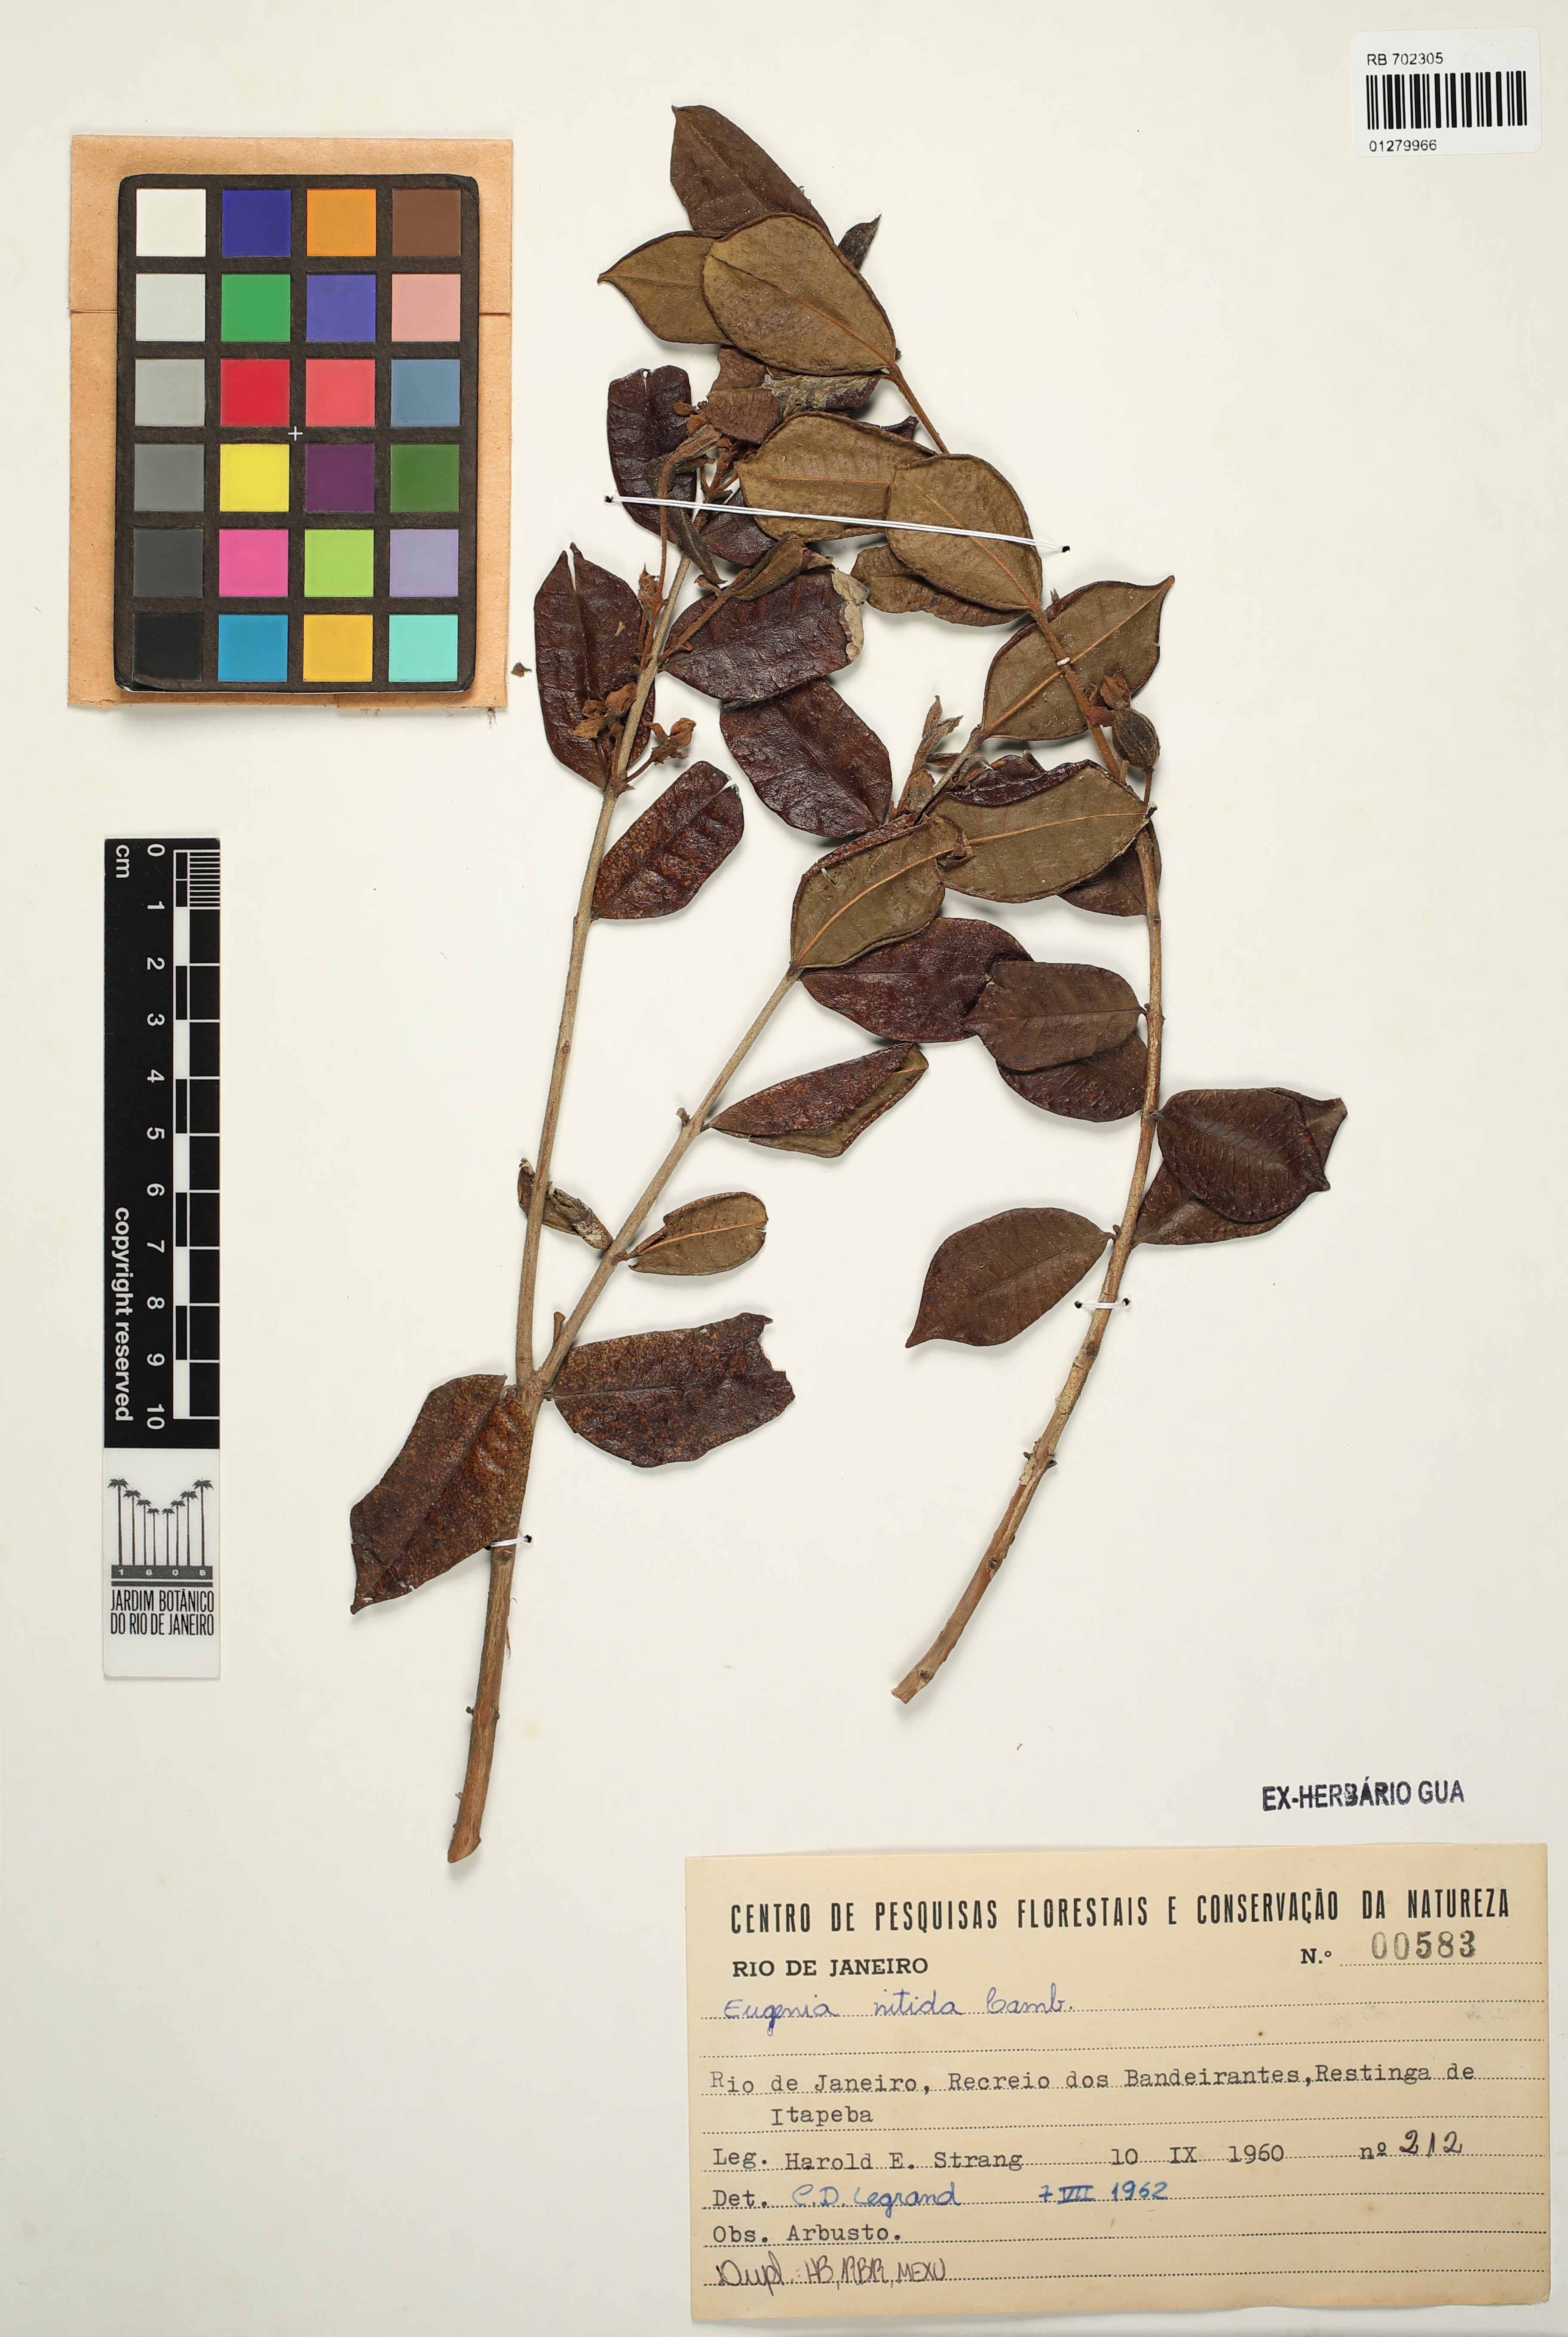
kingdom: Plantae
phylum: Tracheophyta
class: Magnoliopsida
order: Myrtales
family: Myrtaceae
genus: Eugenia
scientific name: Eugenia selloi
